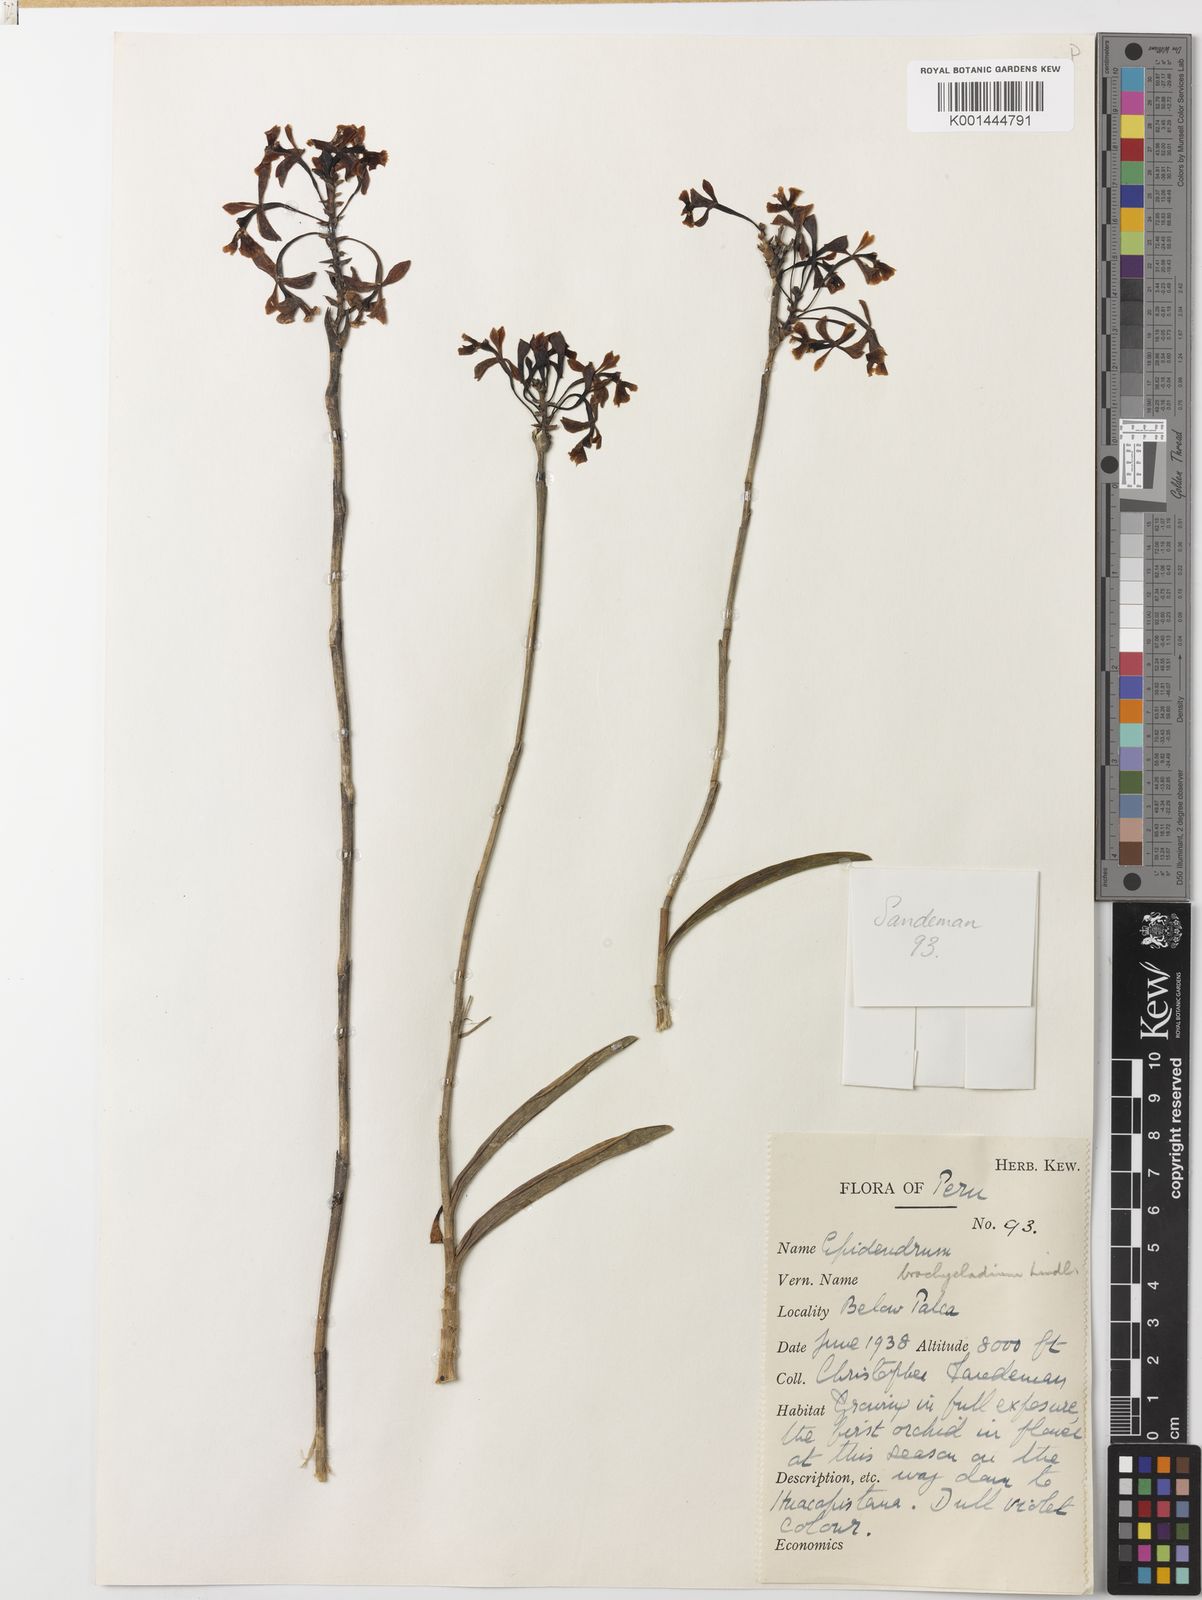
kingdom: Plantae
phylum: Tracheophyta
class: Liliopsida
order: Asparagales
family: Orchidaceae
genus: Epidendrum
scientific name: Epidendrum blepharistes
